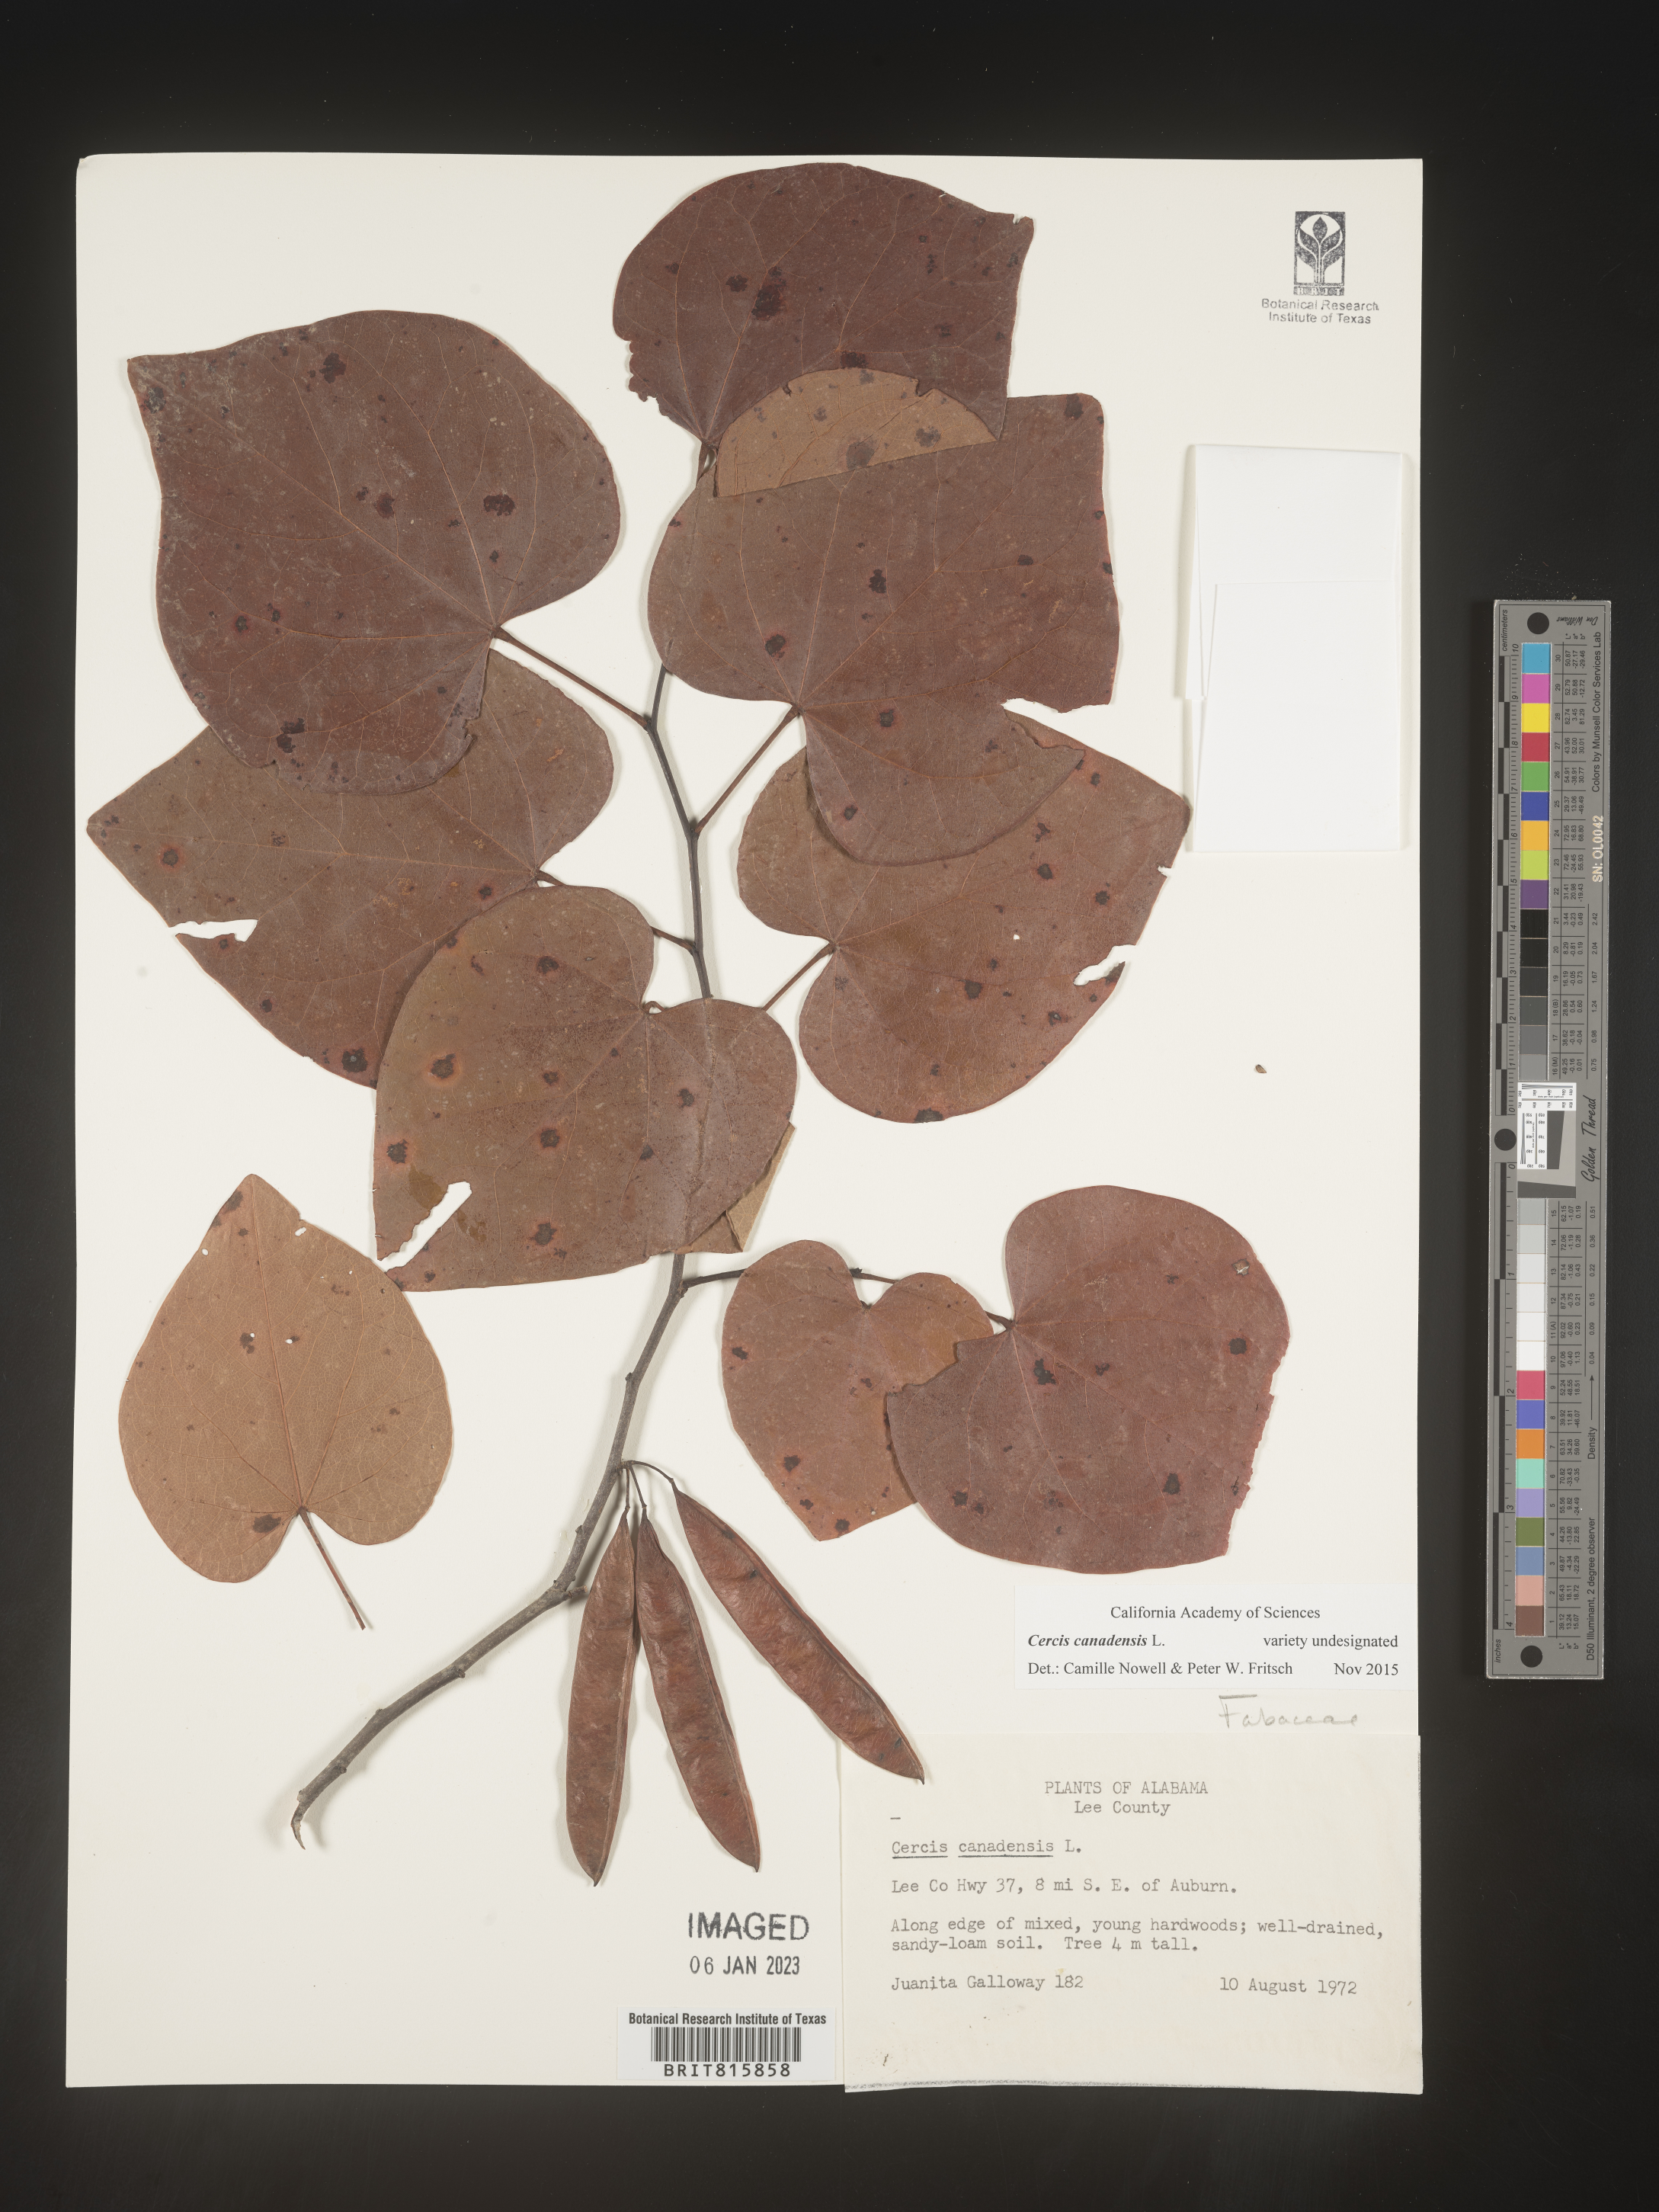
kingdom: Plantae
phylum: Tracheophyta
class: Magnoliopsida
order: Fabales
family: Fabaceae
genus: Cercis
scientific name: Cercis canadensis
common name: Eastern redbud
